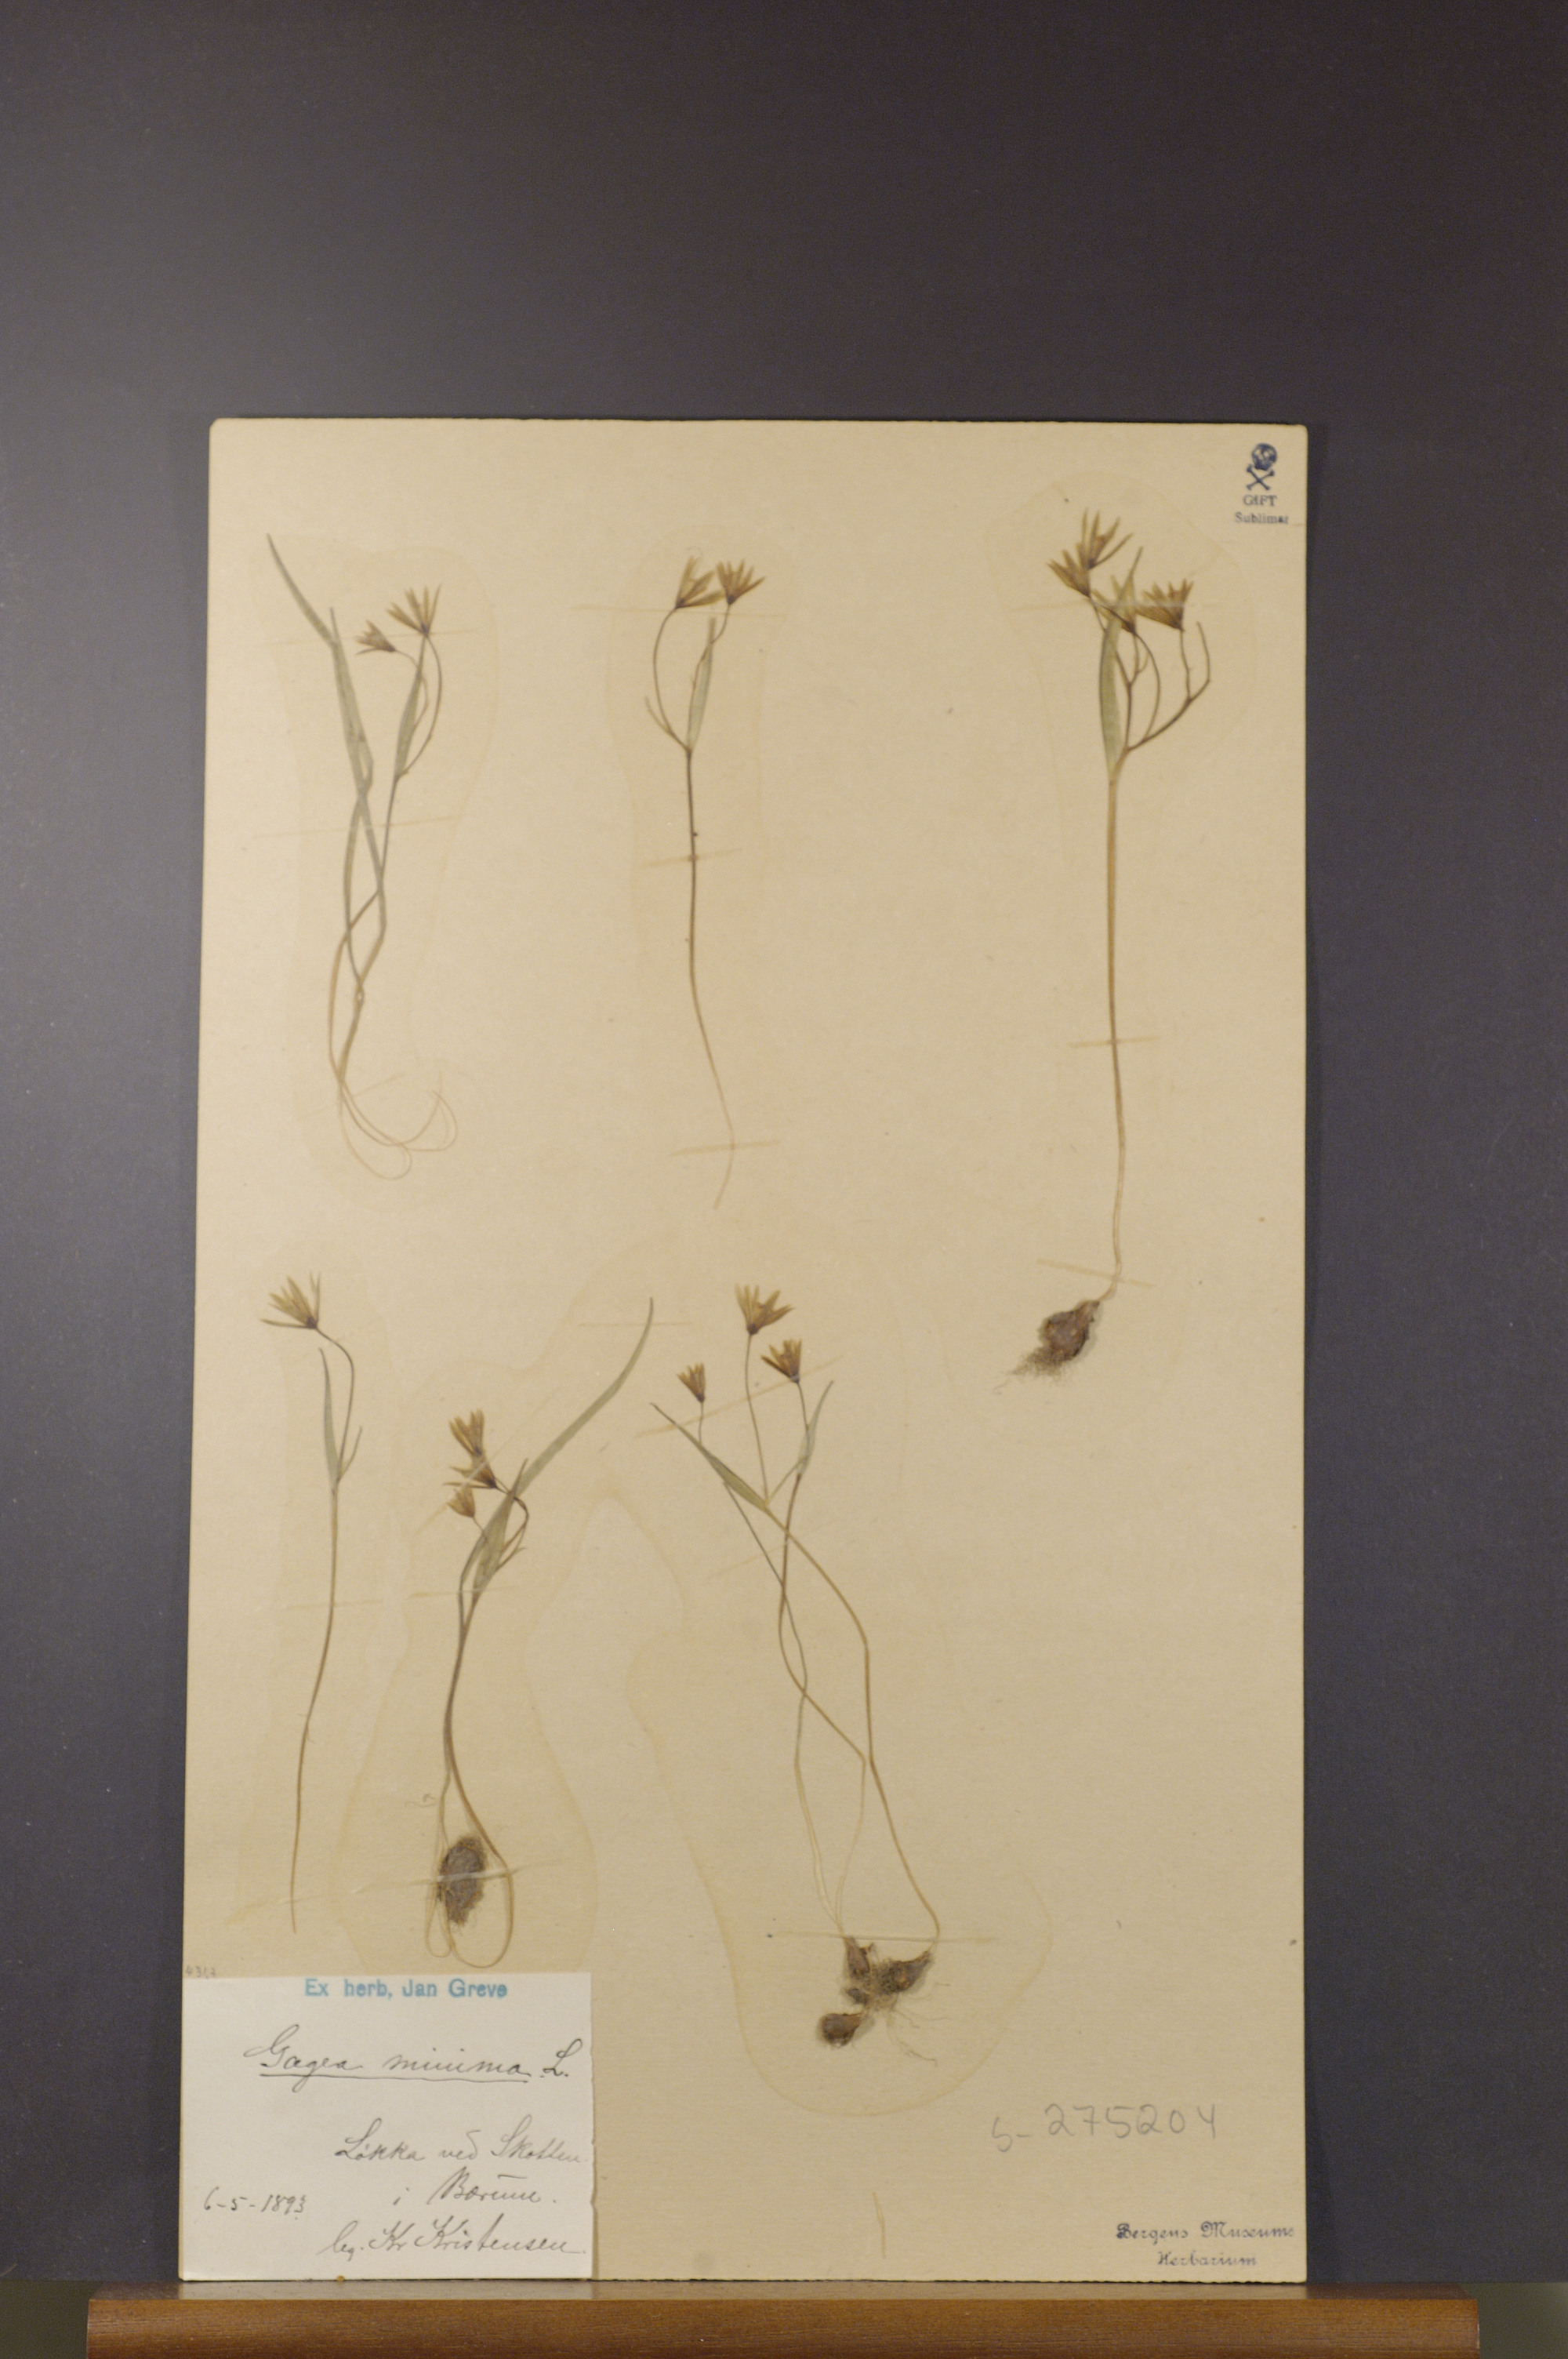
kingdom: Plantae
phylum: Tracheophyta
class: Liliopsida
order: Liliales
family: Liliaceae
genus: Gagea
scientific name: Gagea minima
